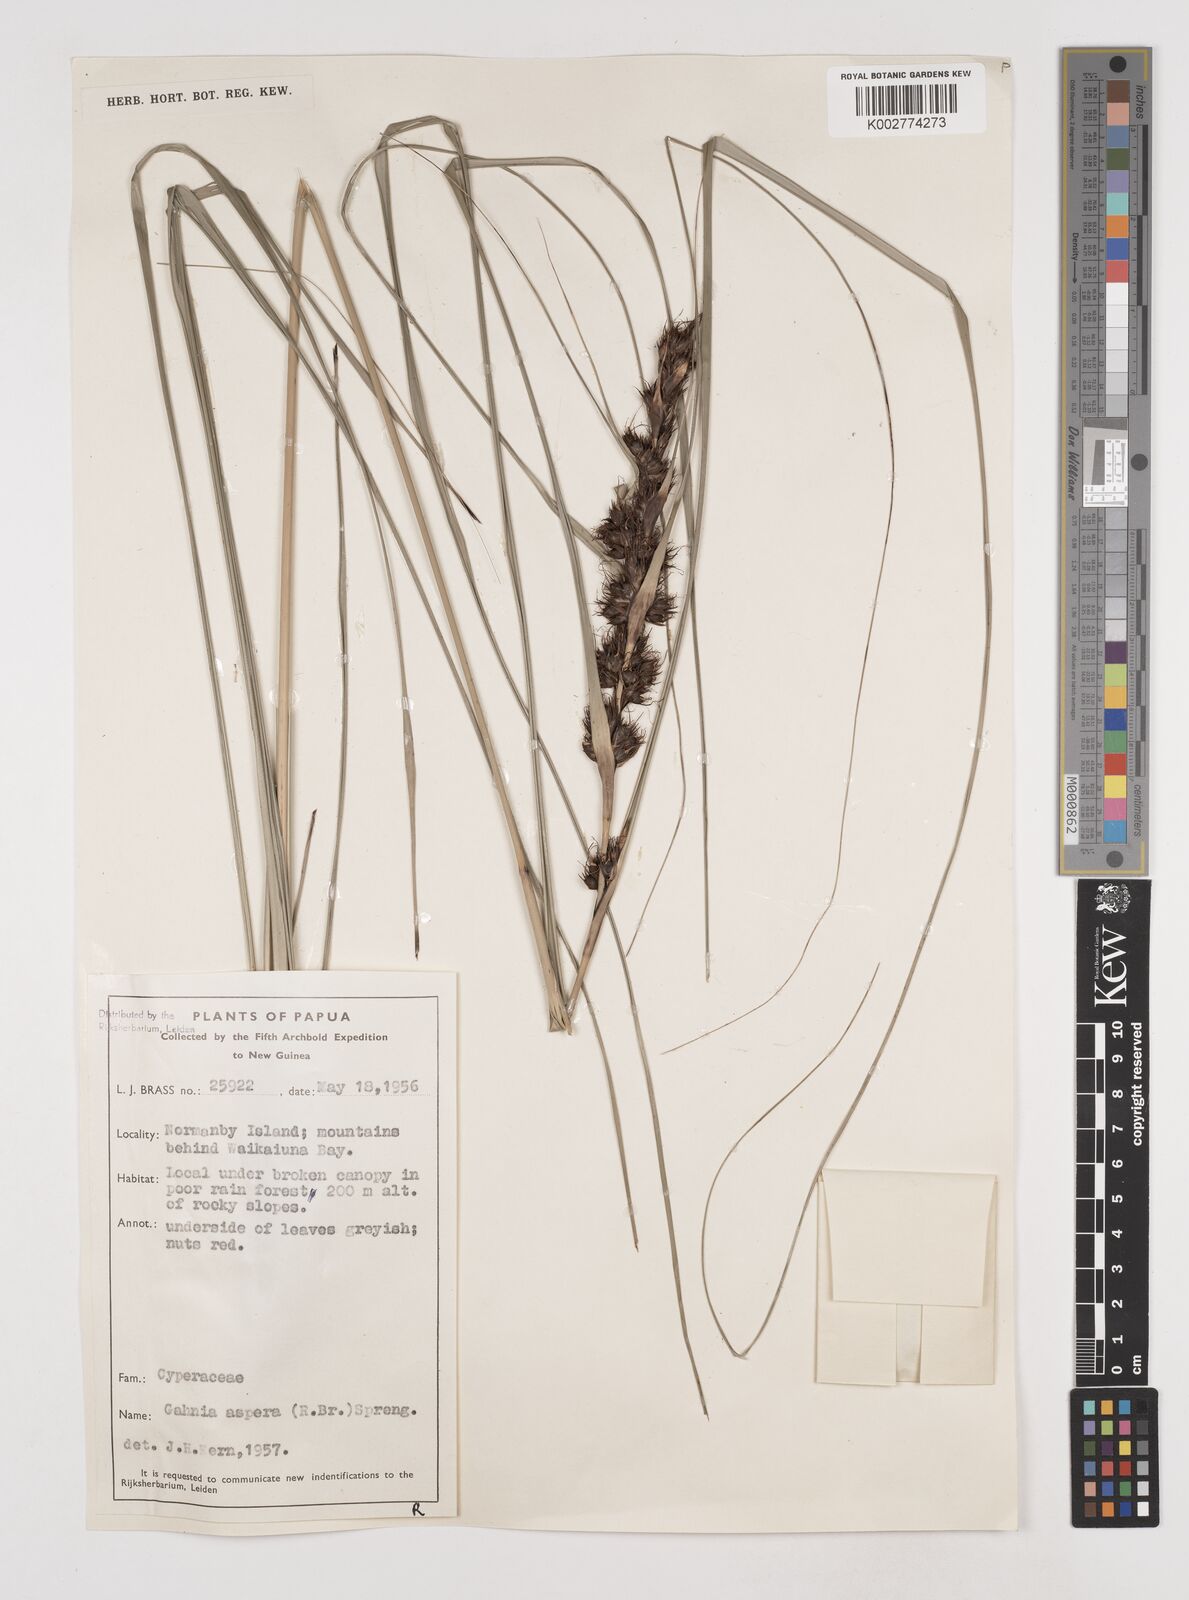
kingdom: Plantae
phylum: Tracheophyta
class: Liliopsida
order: Poales
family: Cyperaceae
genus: Gahnia
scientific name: Gahnia aspera
